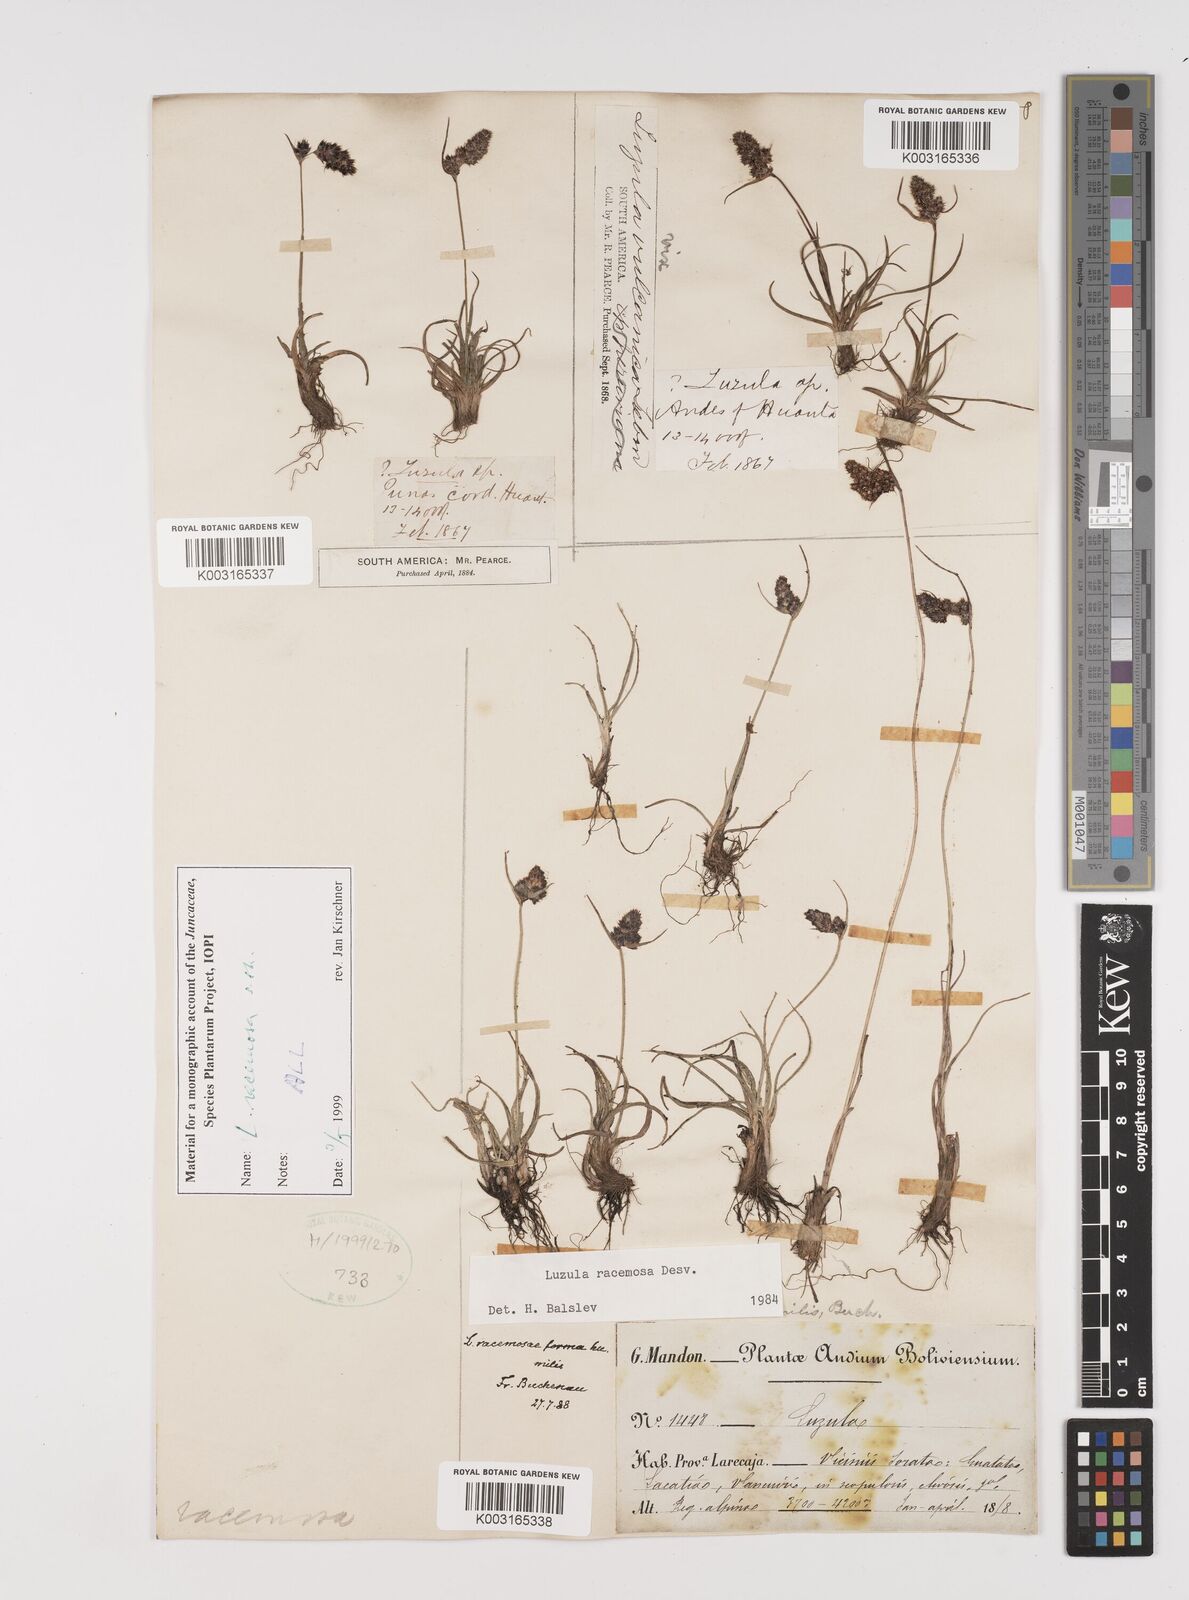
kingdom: Plantae
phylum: Tracheophyta
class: Liliopsida
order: Poales
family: Juncaceae
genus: Luzula
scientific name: Luzula racemosa
